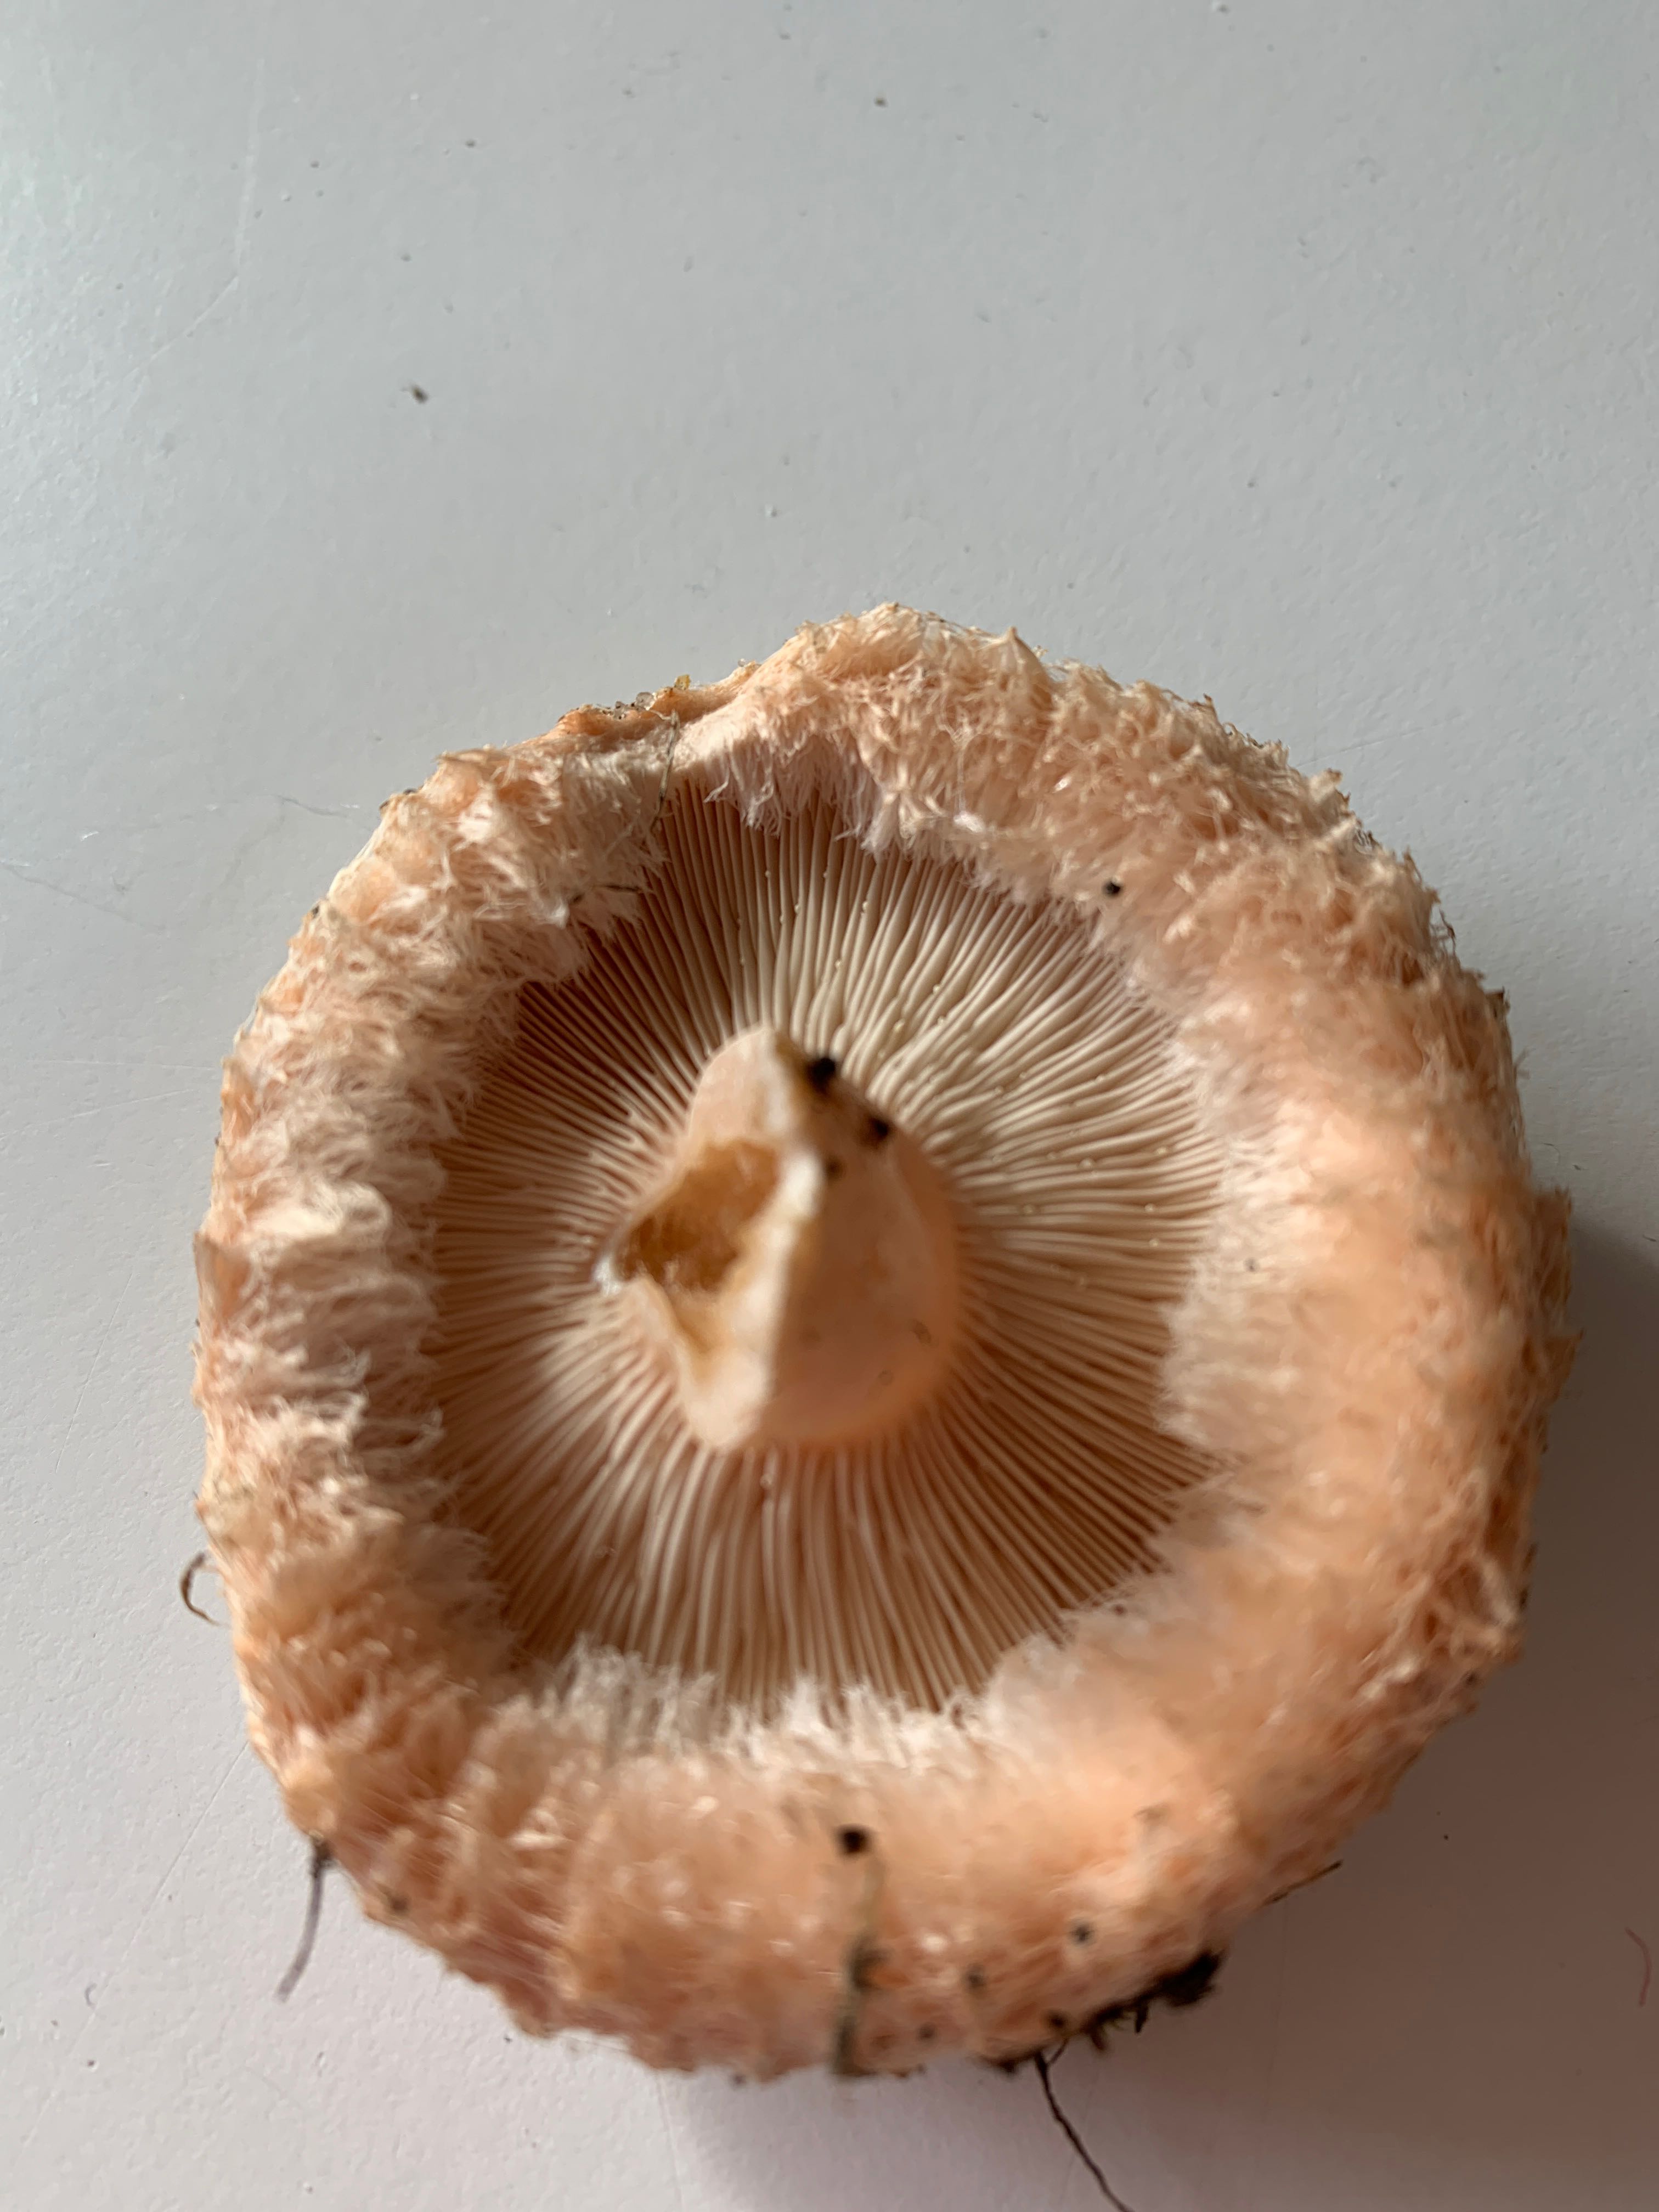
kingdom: Fungi
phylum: Basidiomycota
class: Agaricomycetes
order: Russulales
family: Russulaceae
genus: Lactarius
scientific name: Lactarius pubescens
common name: dunet mælkehat
